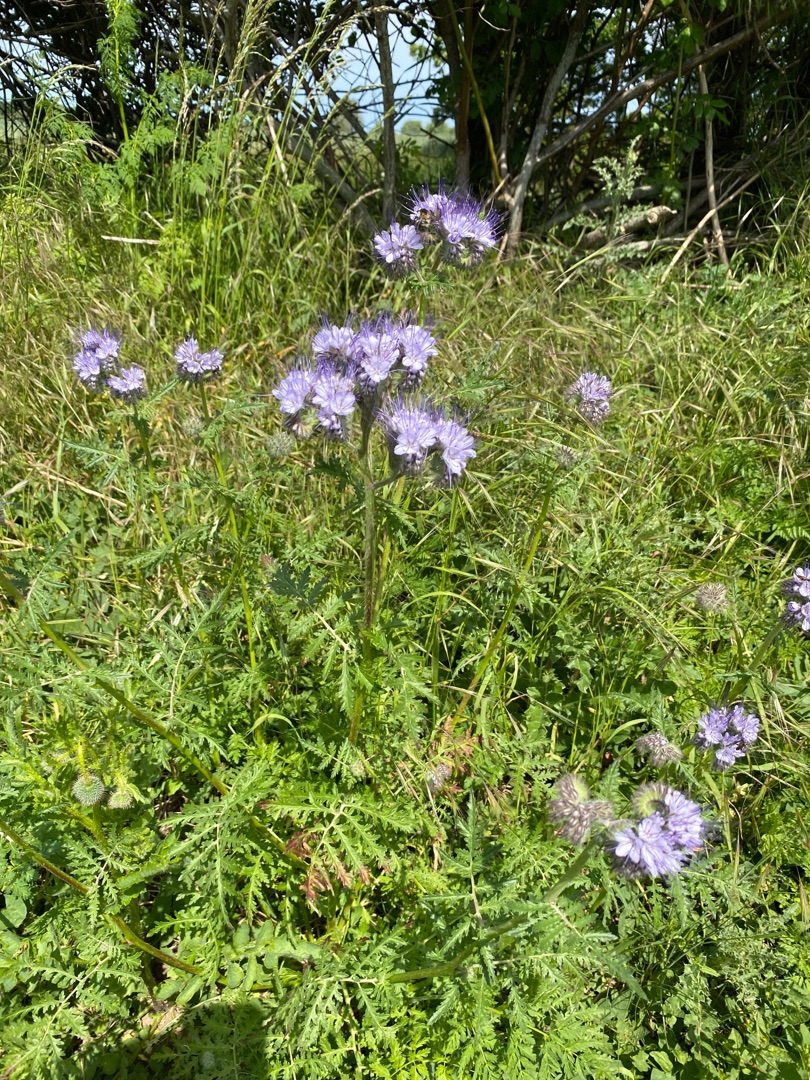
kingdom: Plantae
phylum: Tracheophyta
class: Magnoliopsida
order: Boraginales
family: Hydrophyllaceae
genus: Phacelia
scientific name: Phacelia tanacetifolia
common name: Honningurt
